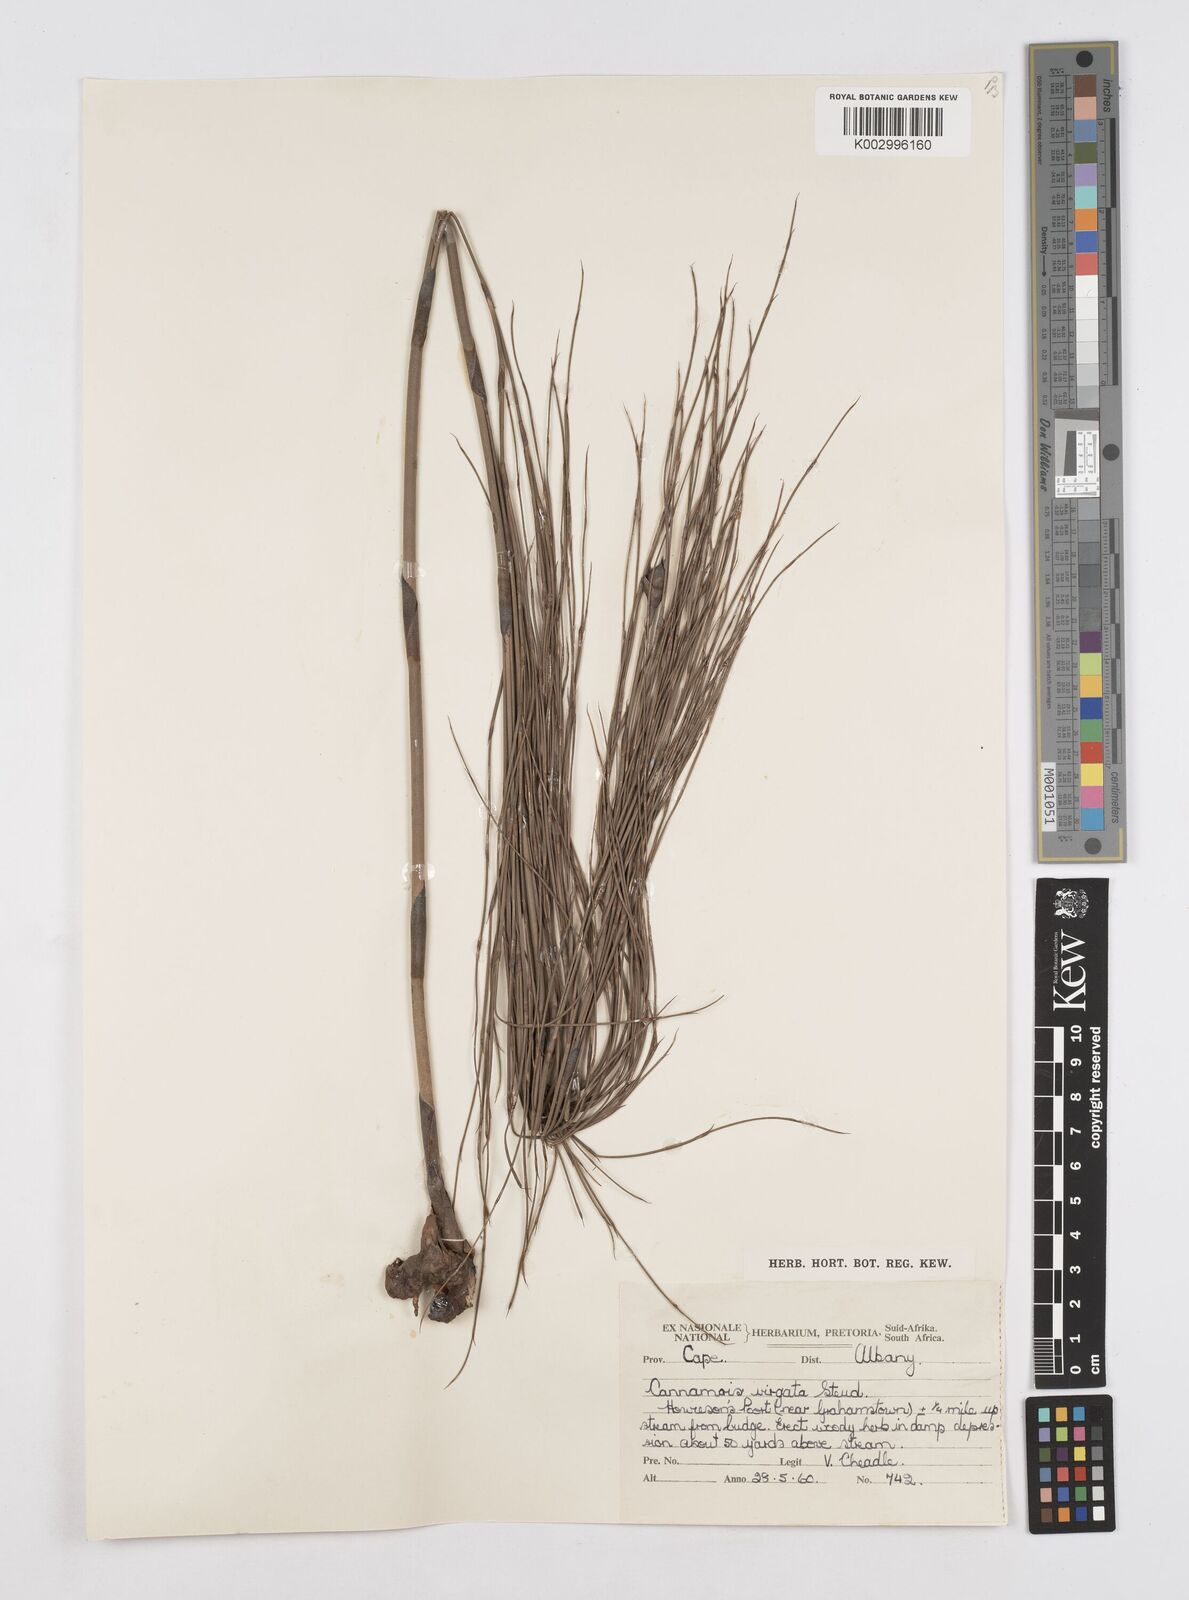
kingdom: Plantae
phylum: Tracheophyta
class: Liliopsida
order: Poales
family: Restionaceae
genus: Cannomois
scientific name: Cannomois virgata
